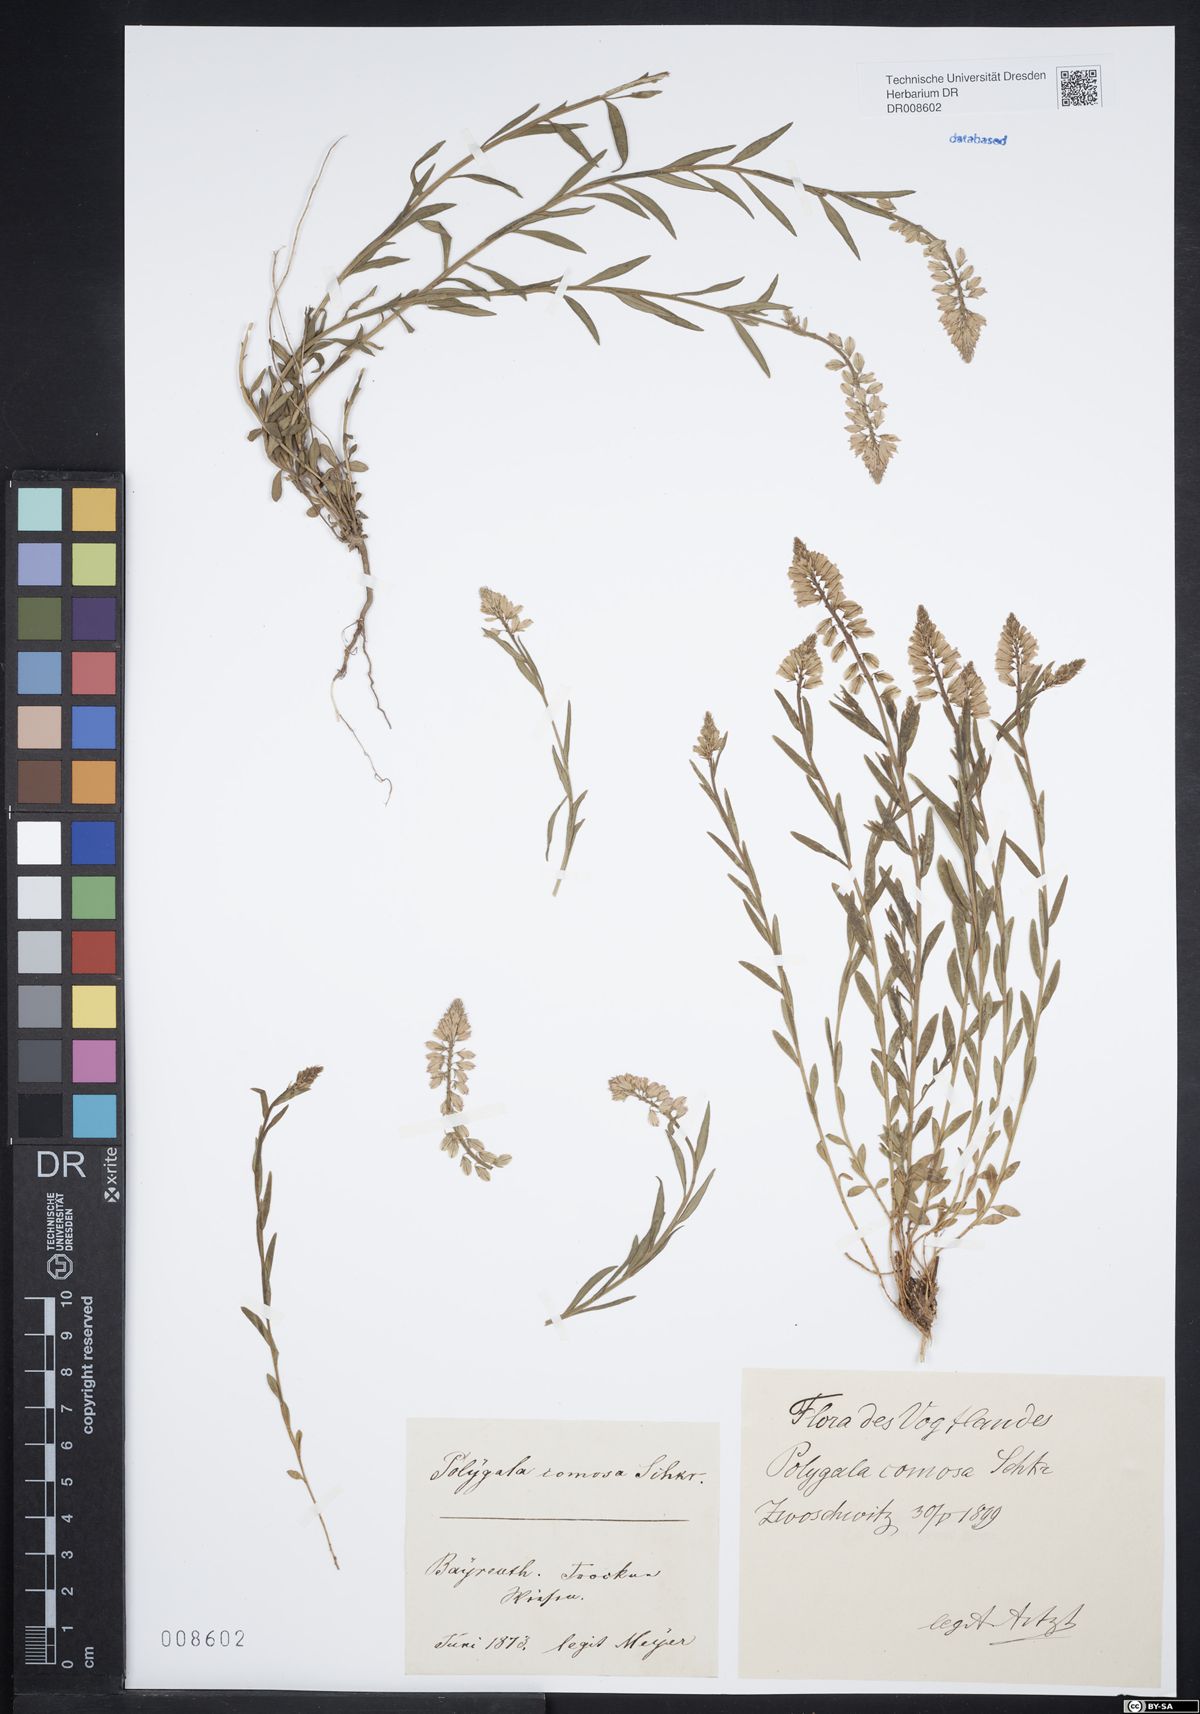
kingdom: Plantae
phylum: Tracheophyta
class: Magnoliopsida
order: Fabales
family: Polygalaceae
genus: Polygala
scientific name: Polygala comosa
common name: Tufted milkwort
